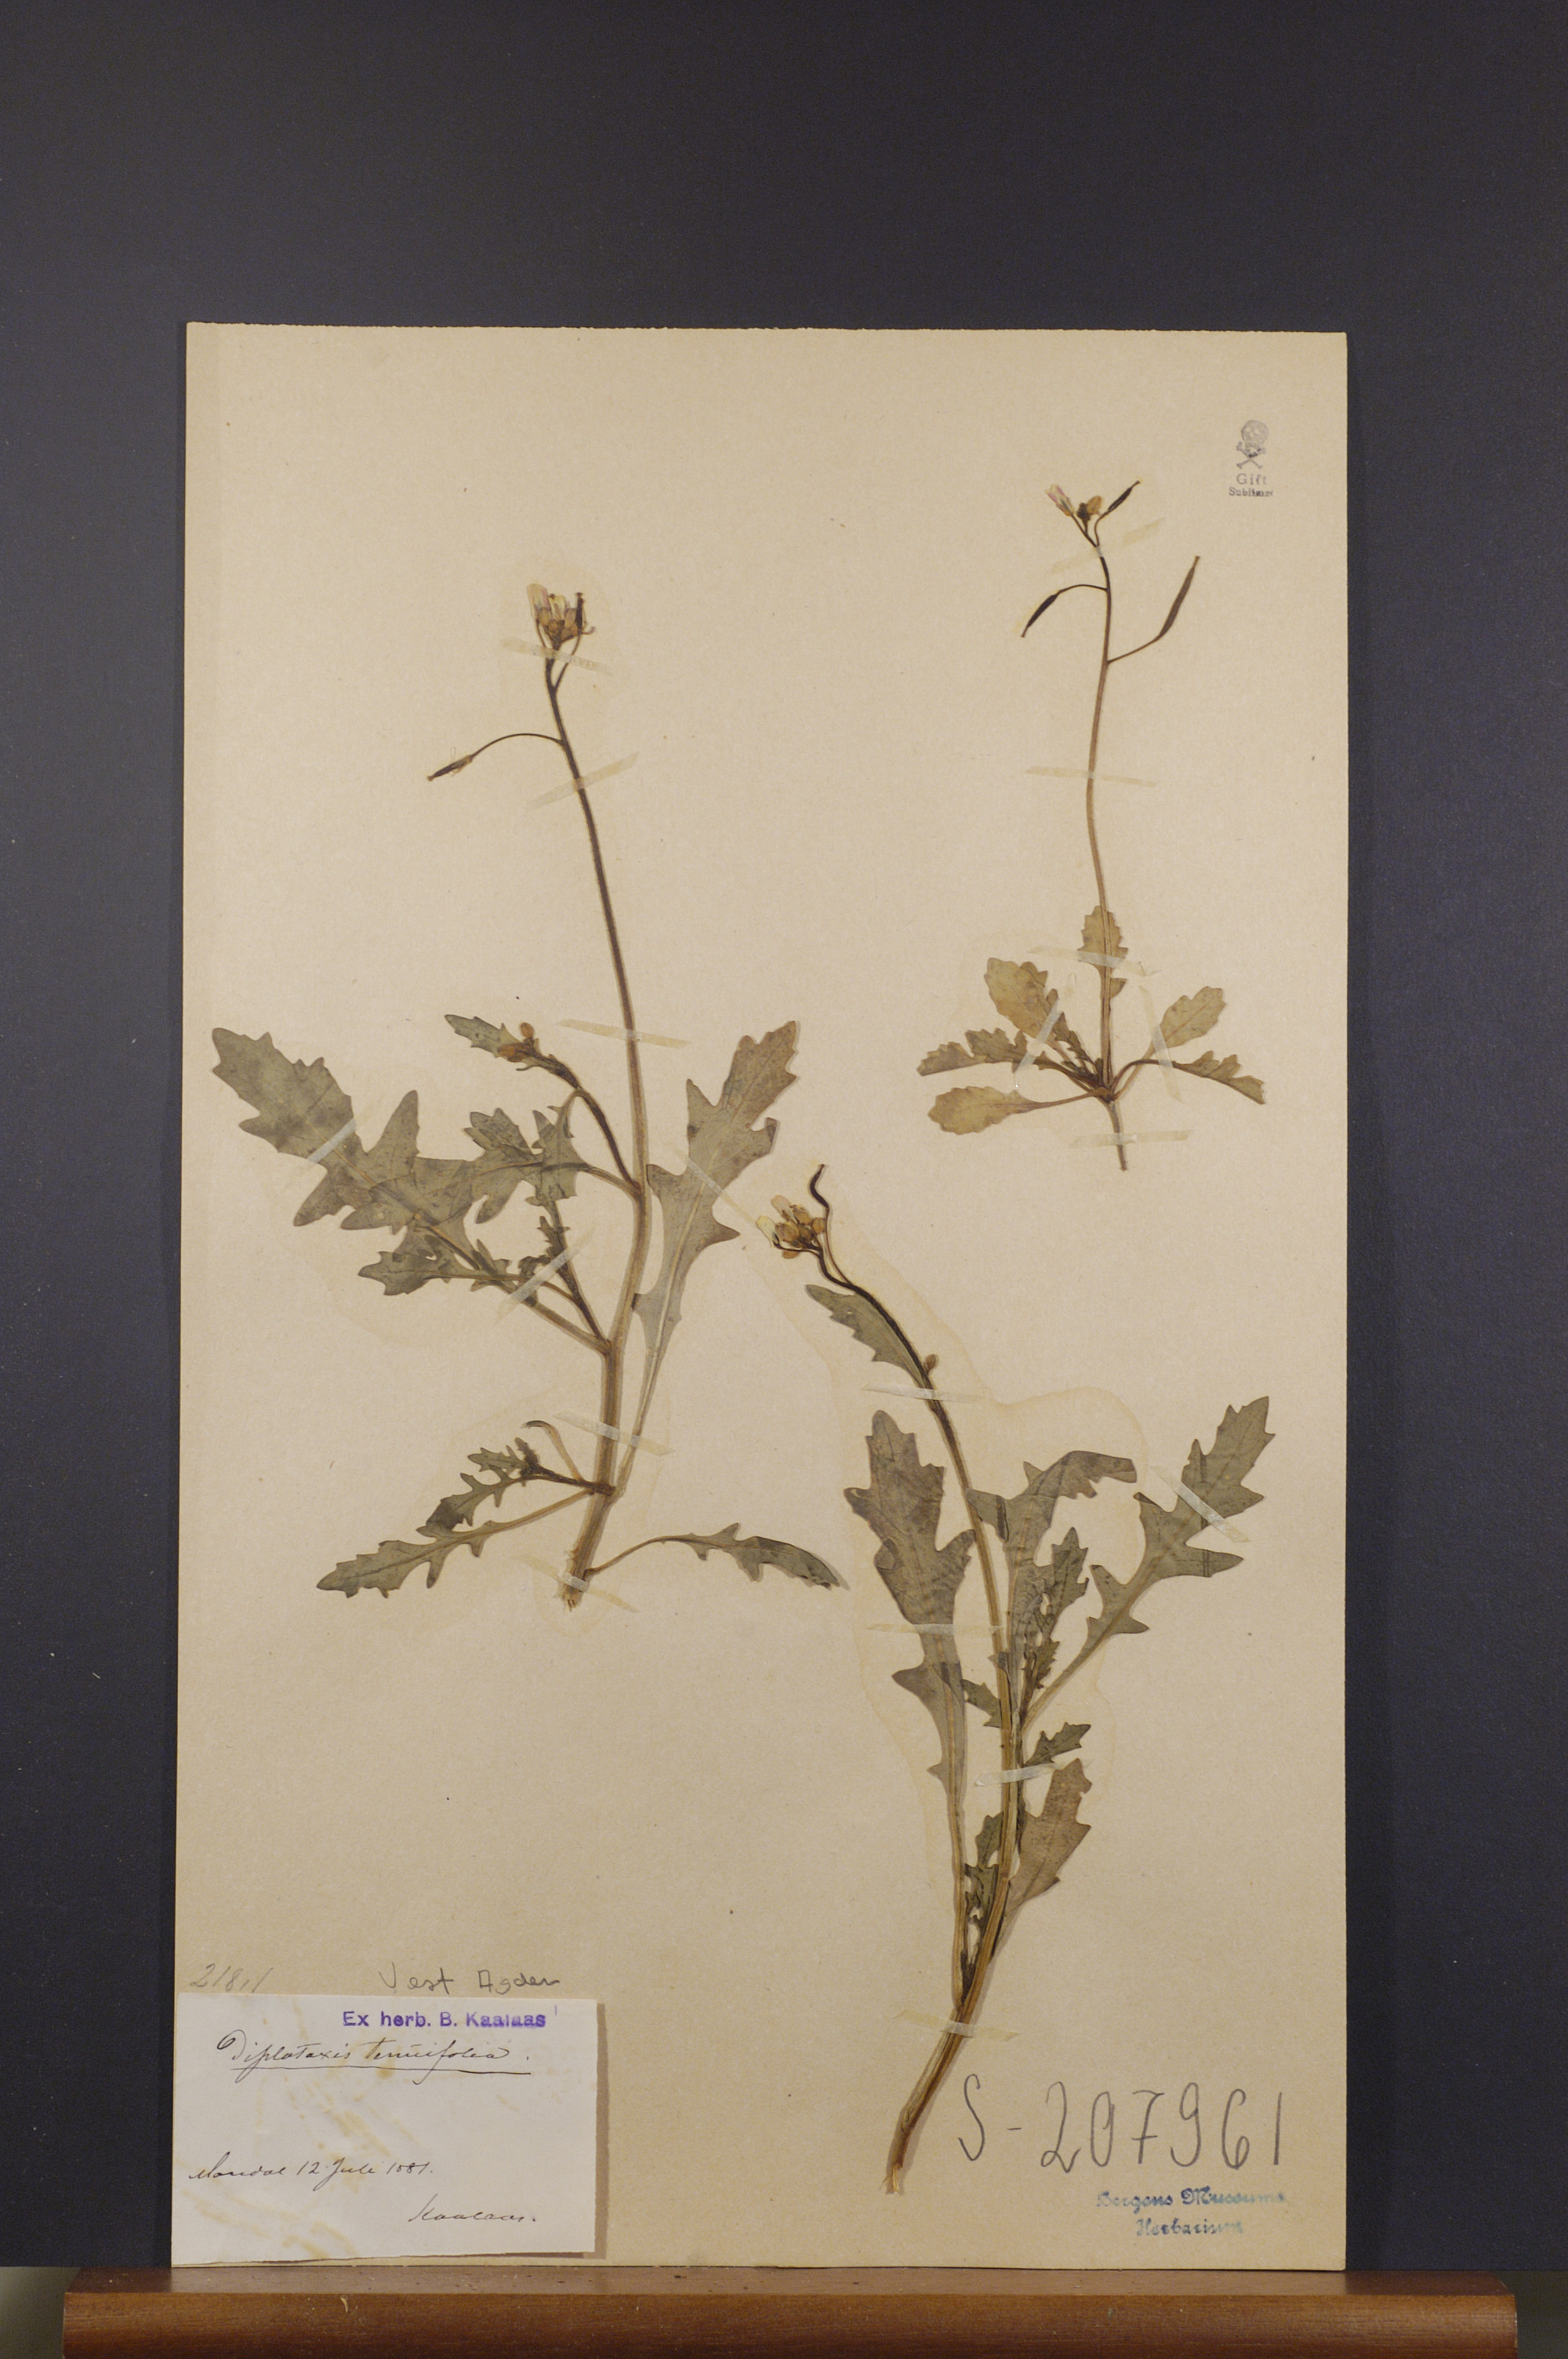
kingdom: Plantae
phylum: Tracheophyta
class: Magnoliopsida
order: Brassicales
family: Brassicaceae
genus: Diplotaxis
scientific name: Diplotaxis tenuifolia
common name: Perennial wall-rocket
